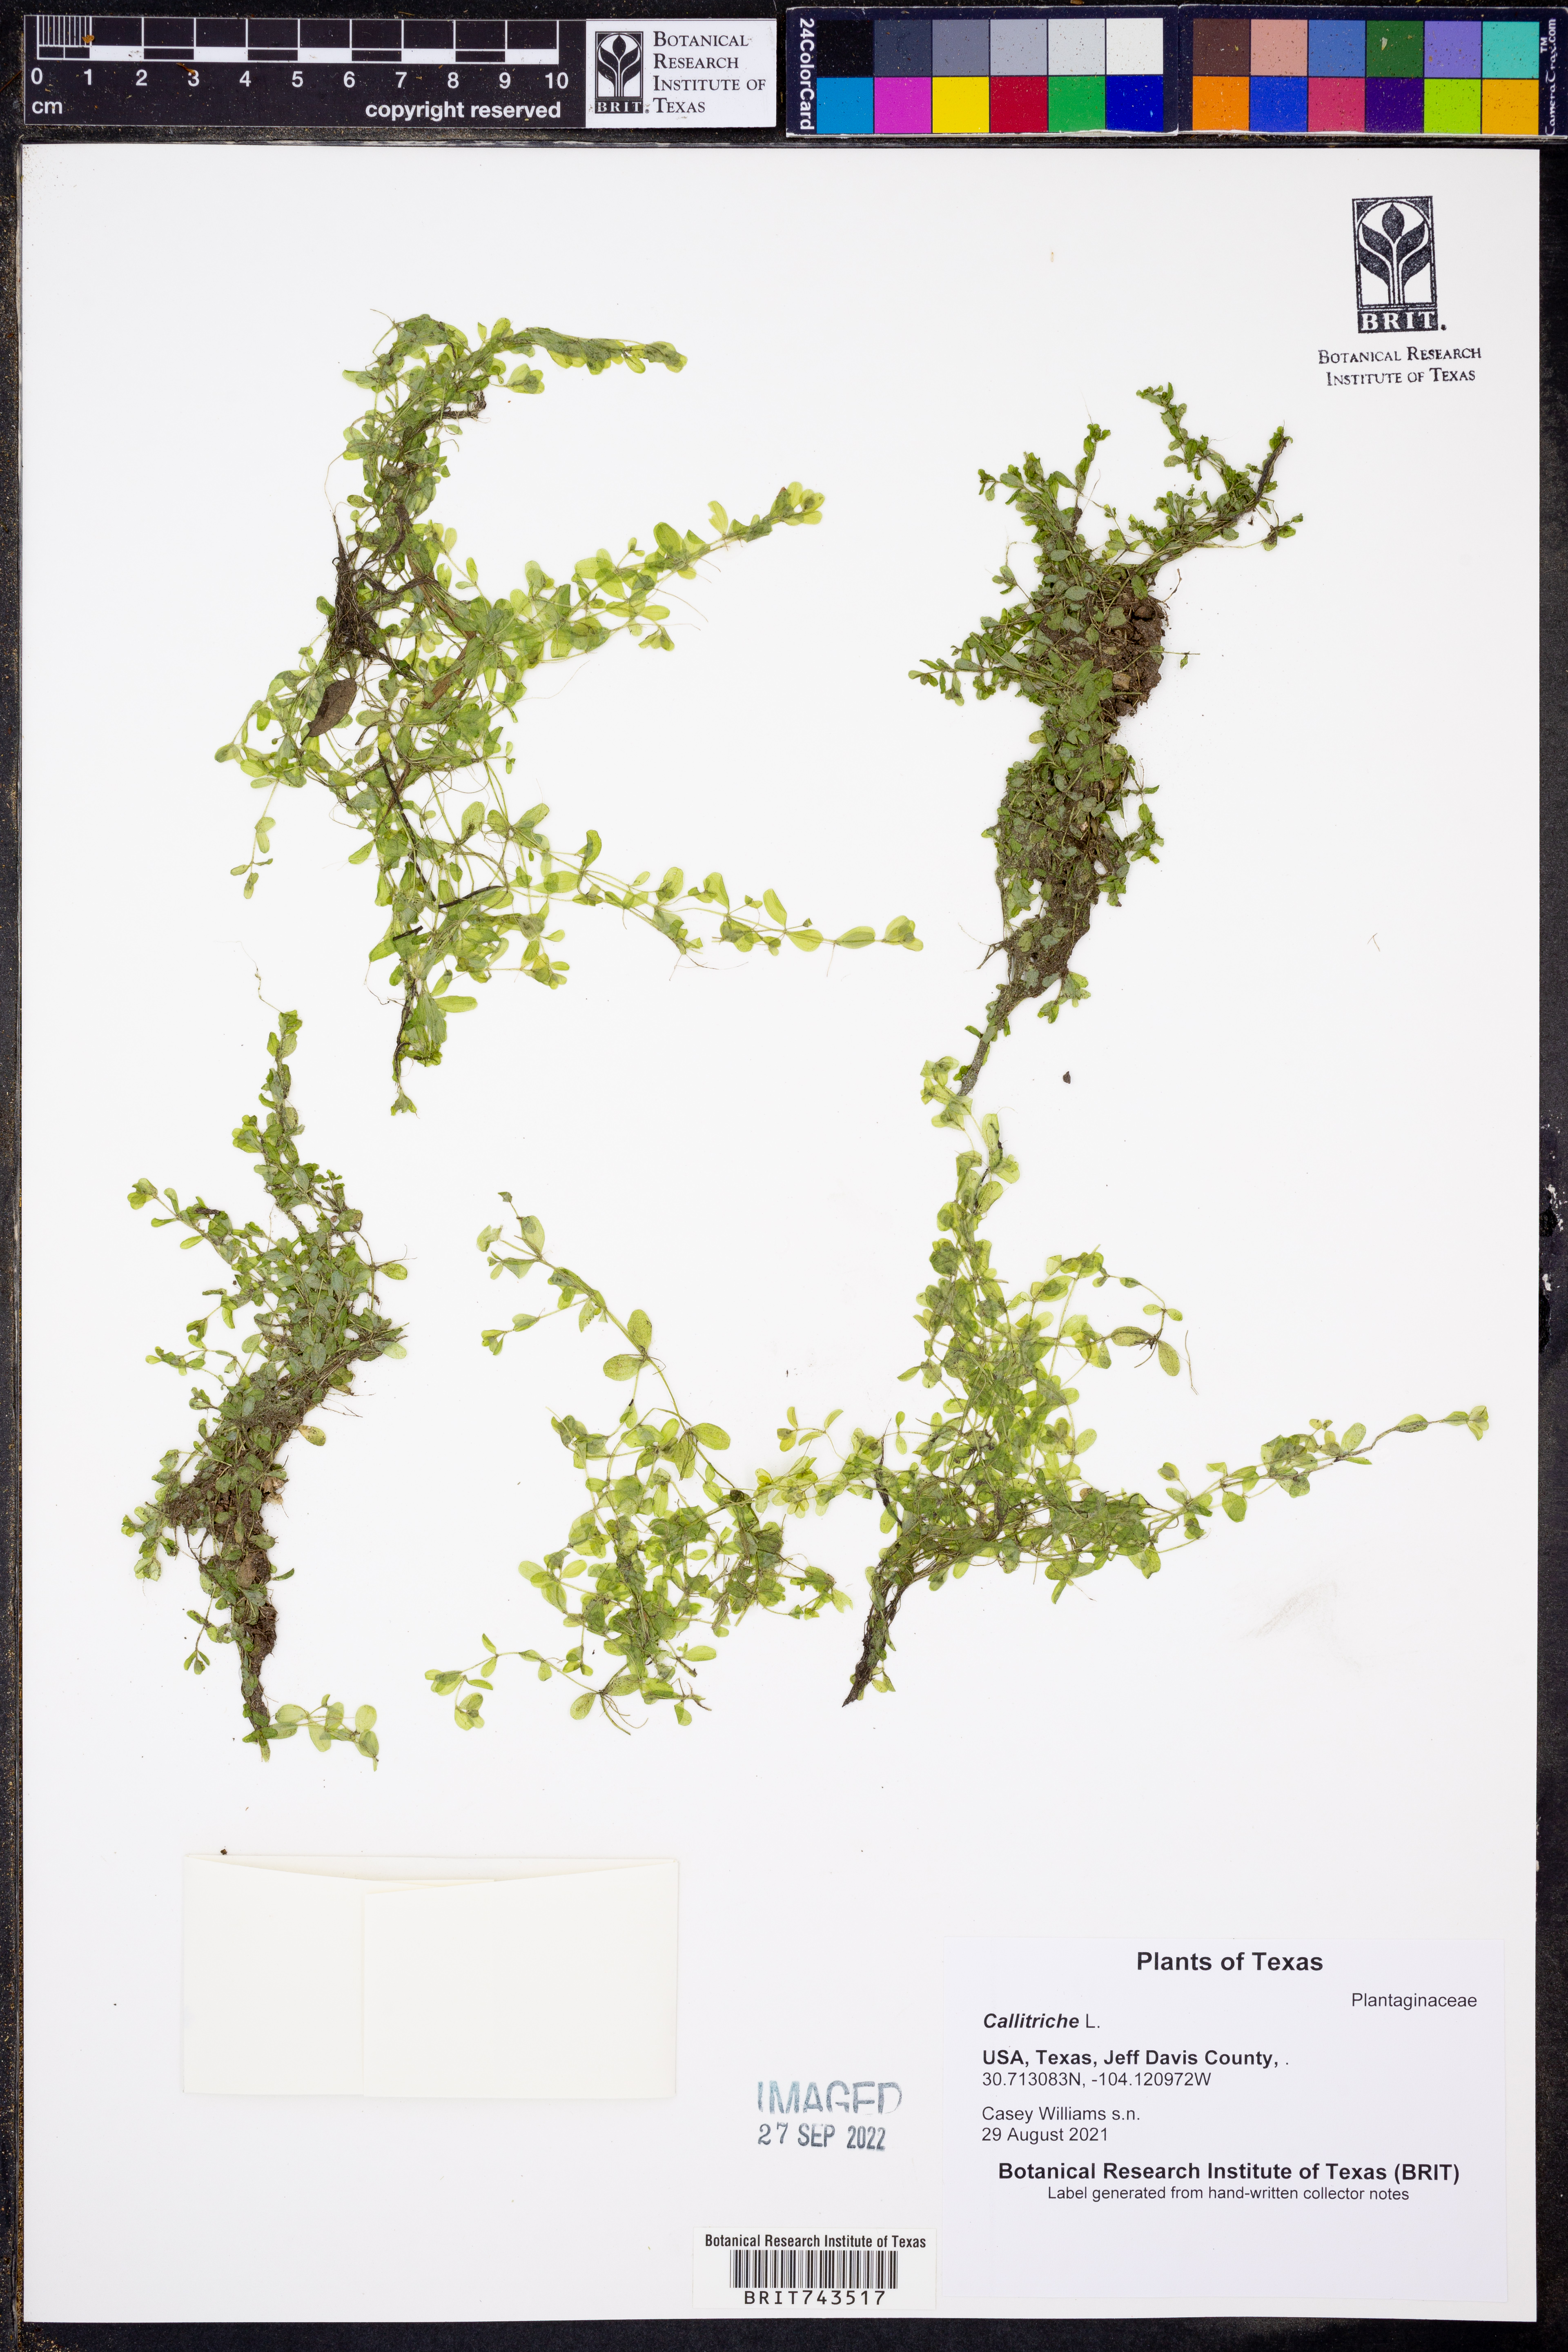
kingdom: Plantae
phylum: Tracheophyta
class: Magnoliopsida
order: Lamiales
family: Plantaginaceae
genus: Callitriche
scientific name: Callitriche
